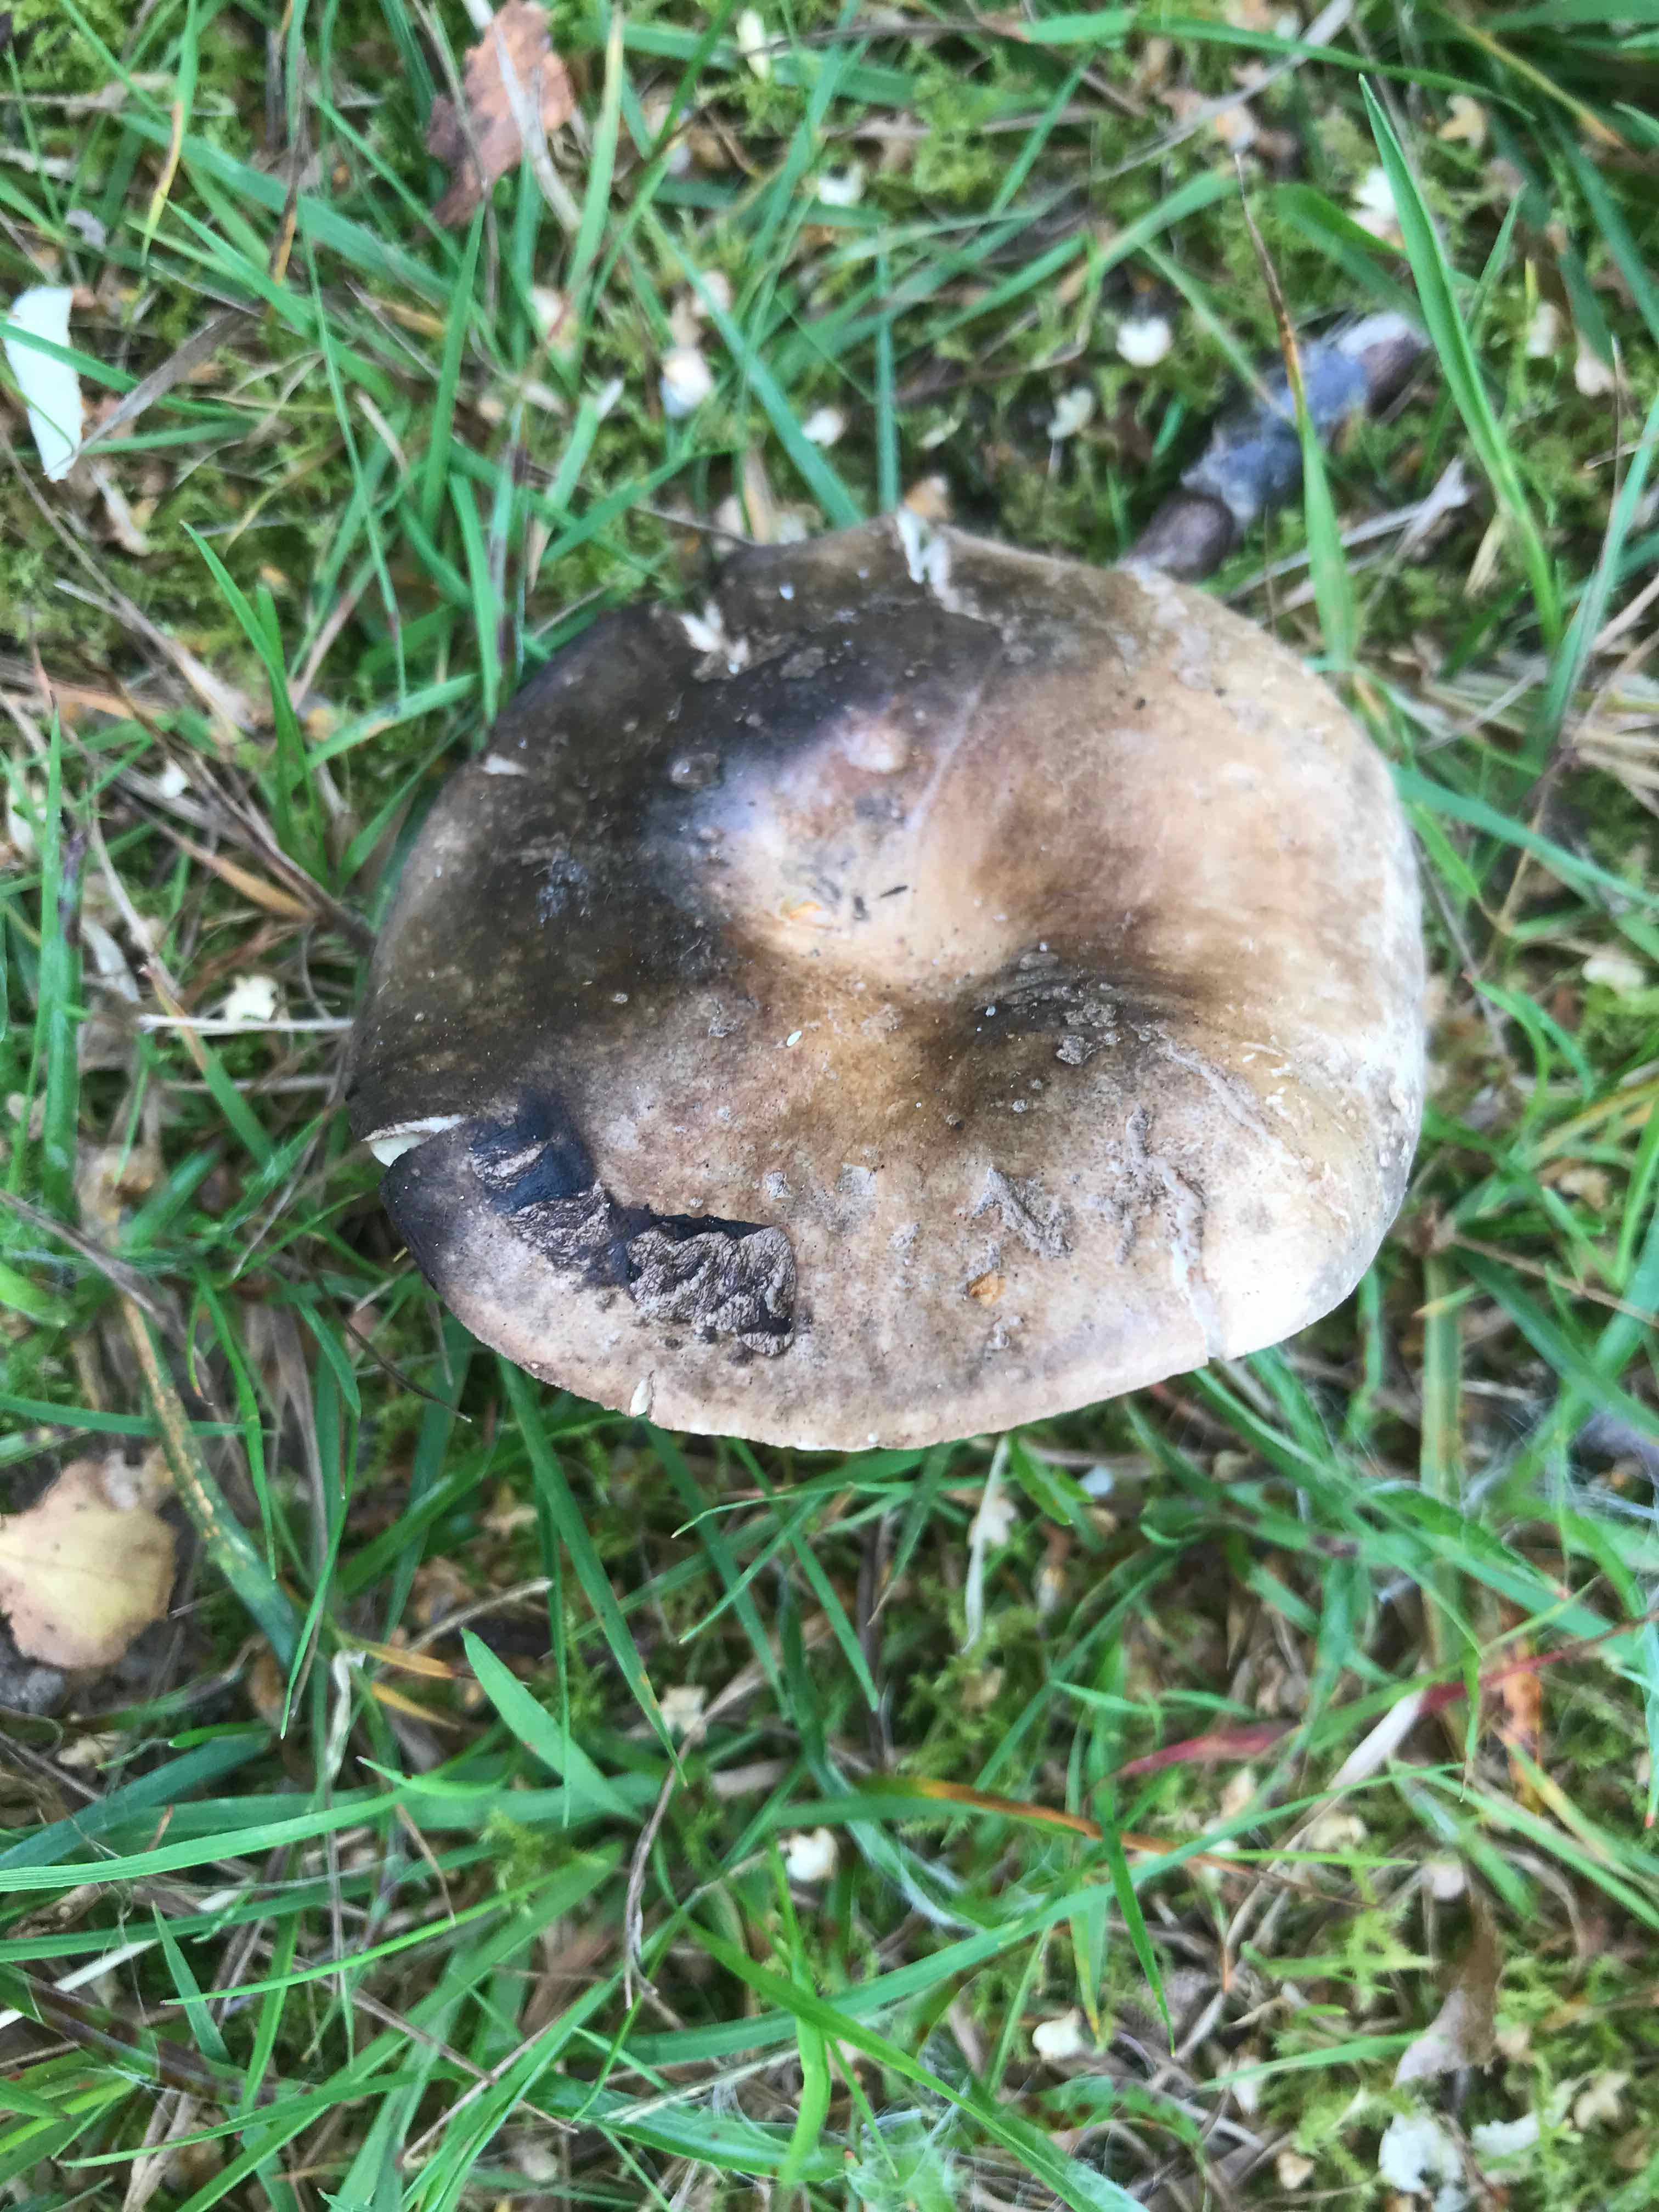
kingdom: Fungi
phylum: Basidiomycota
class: Agaricomycetes
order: Russulales
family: Russulaceae
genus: Russula
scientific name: Russula adusta
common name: sværtende skørhat
